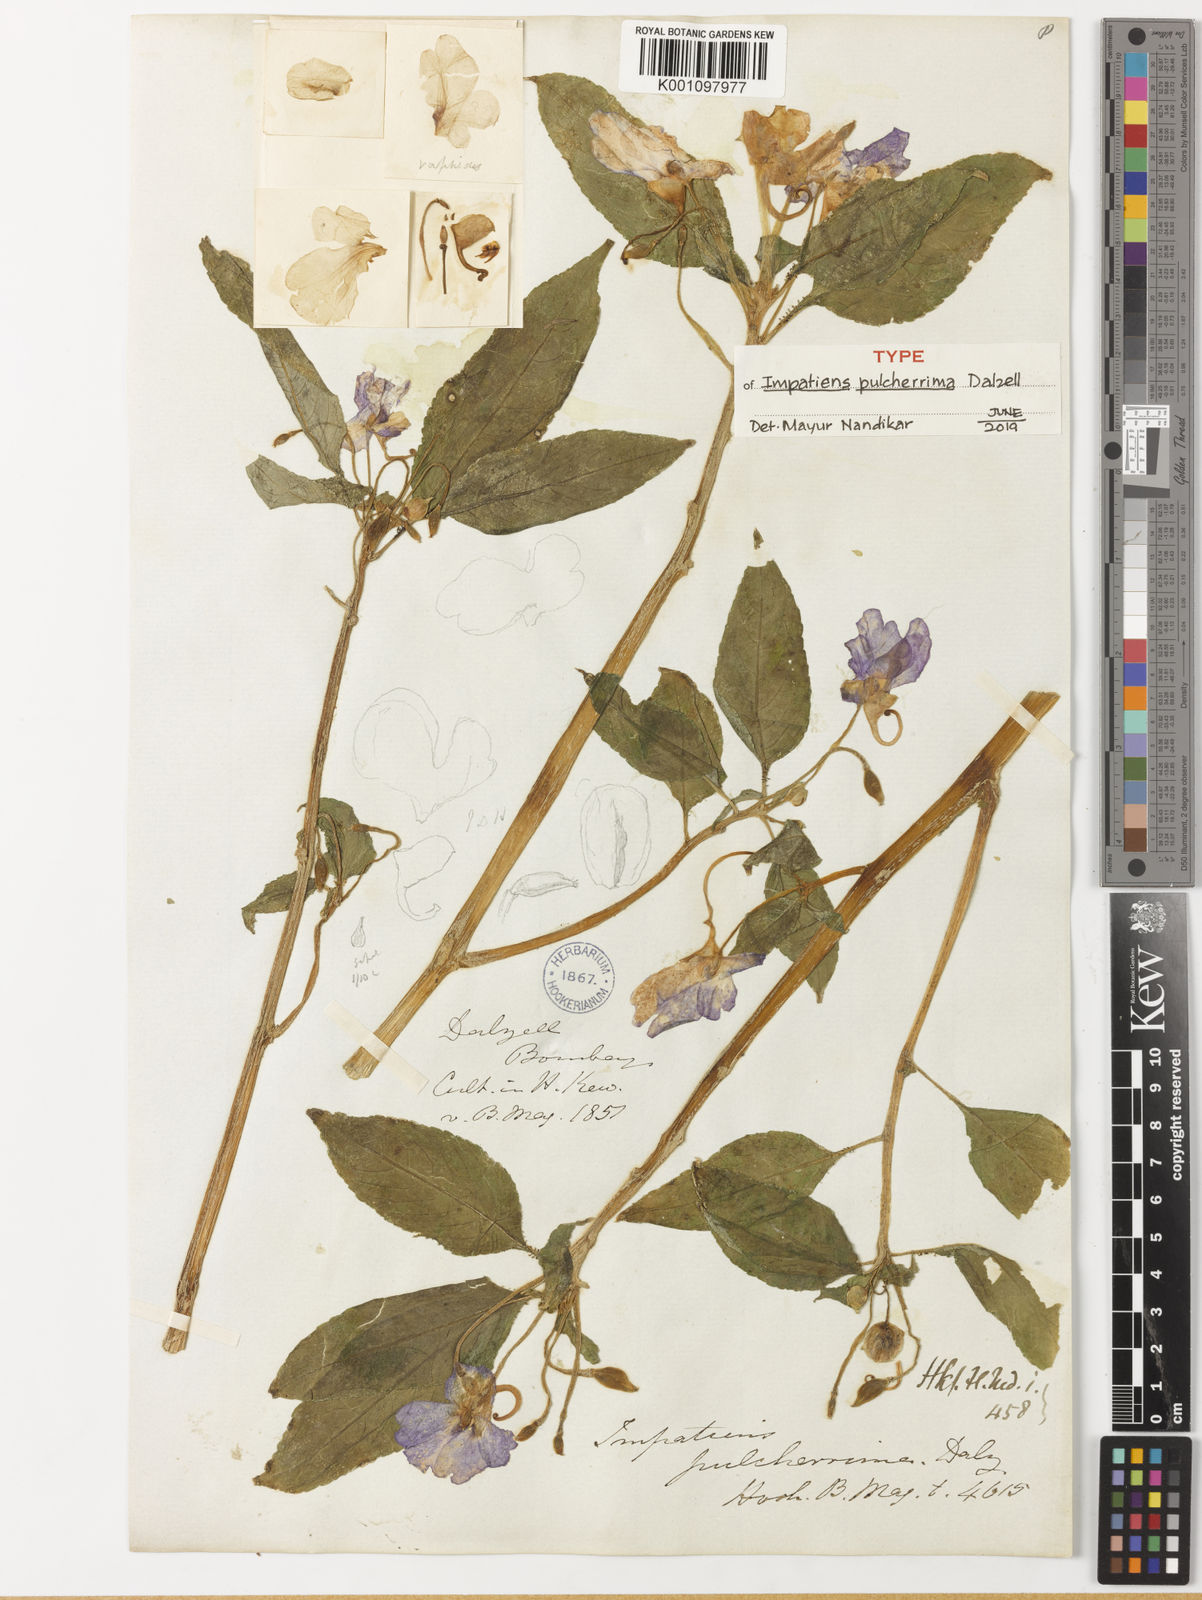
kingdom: Plantae
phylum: Tracheophyta
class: Magnoliopsida
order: Ericales
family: Balsaminaceae
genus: Impatiens
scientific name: Impatiens pulcherrima
